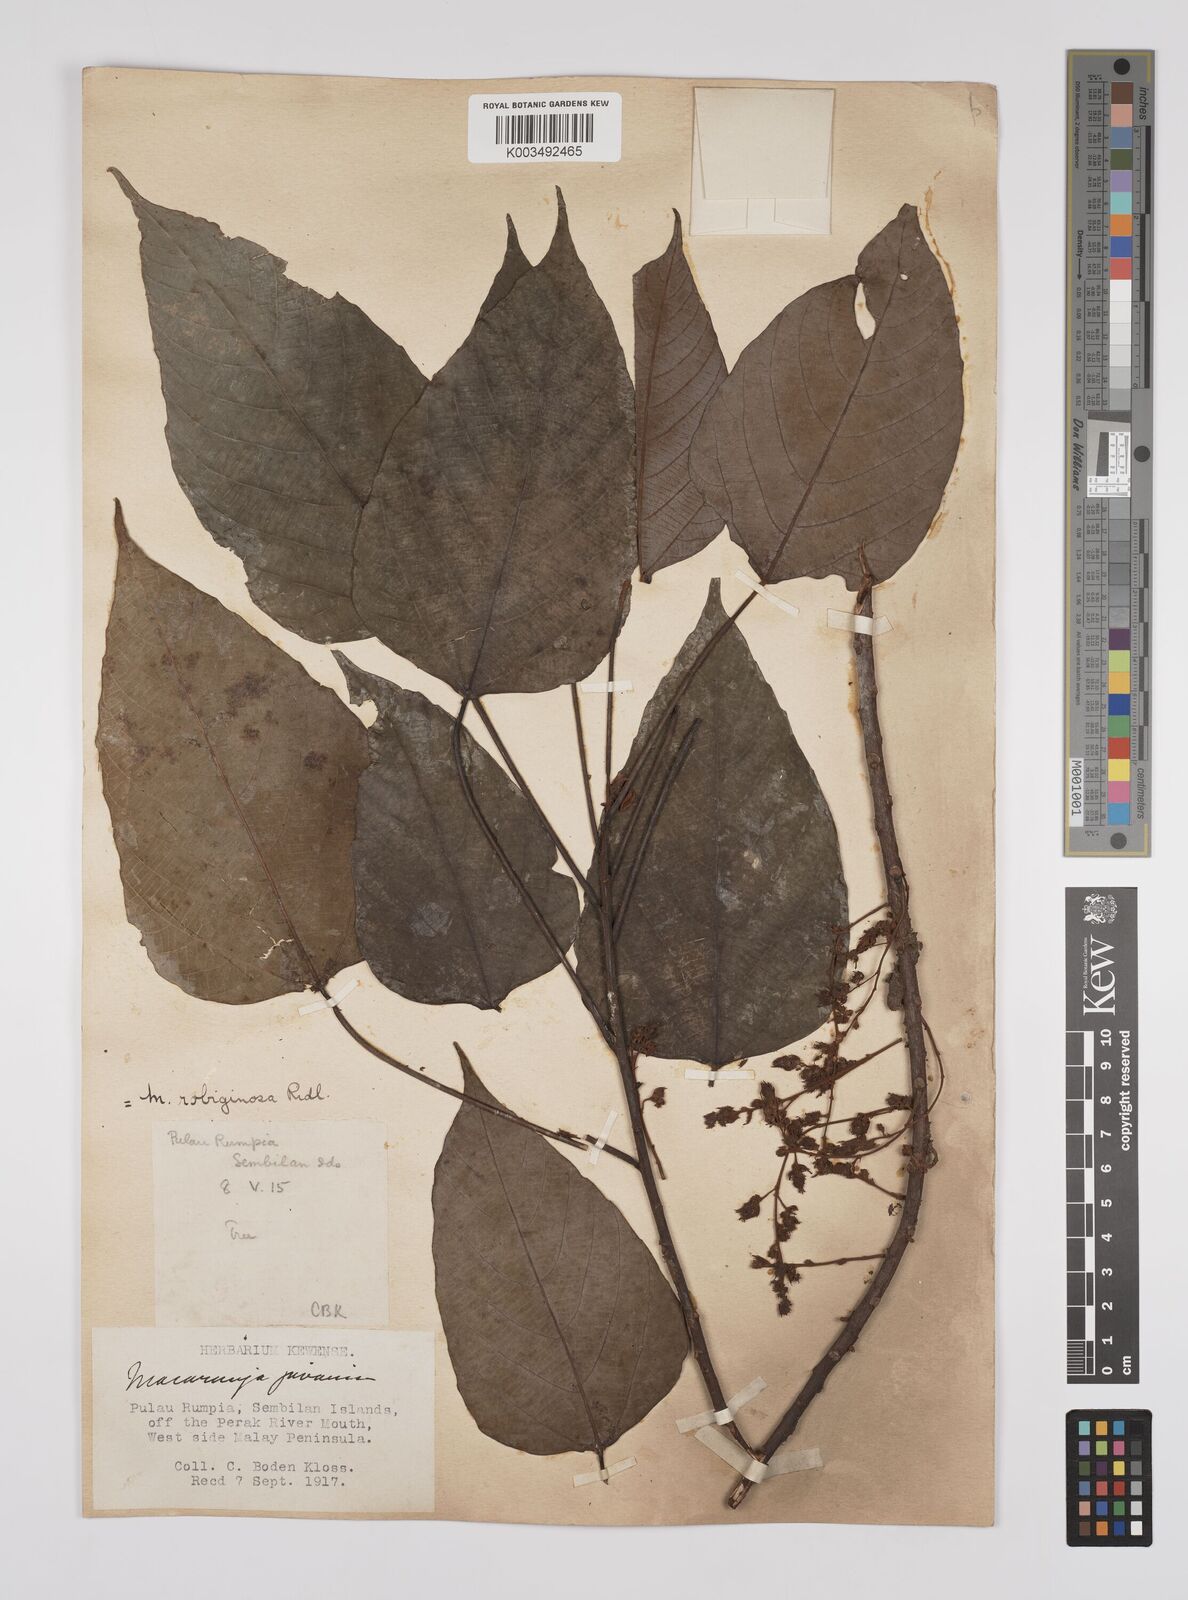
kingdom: Plantae
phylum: Tracheophyta
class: Magnoliopsida
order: Malpighiales
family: Euphorbiaceae
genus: Macaranga
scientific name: Macaranga heynei
